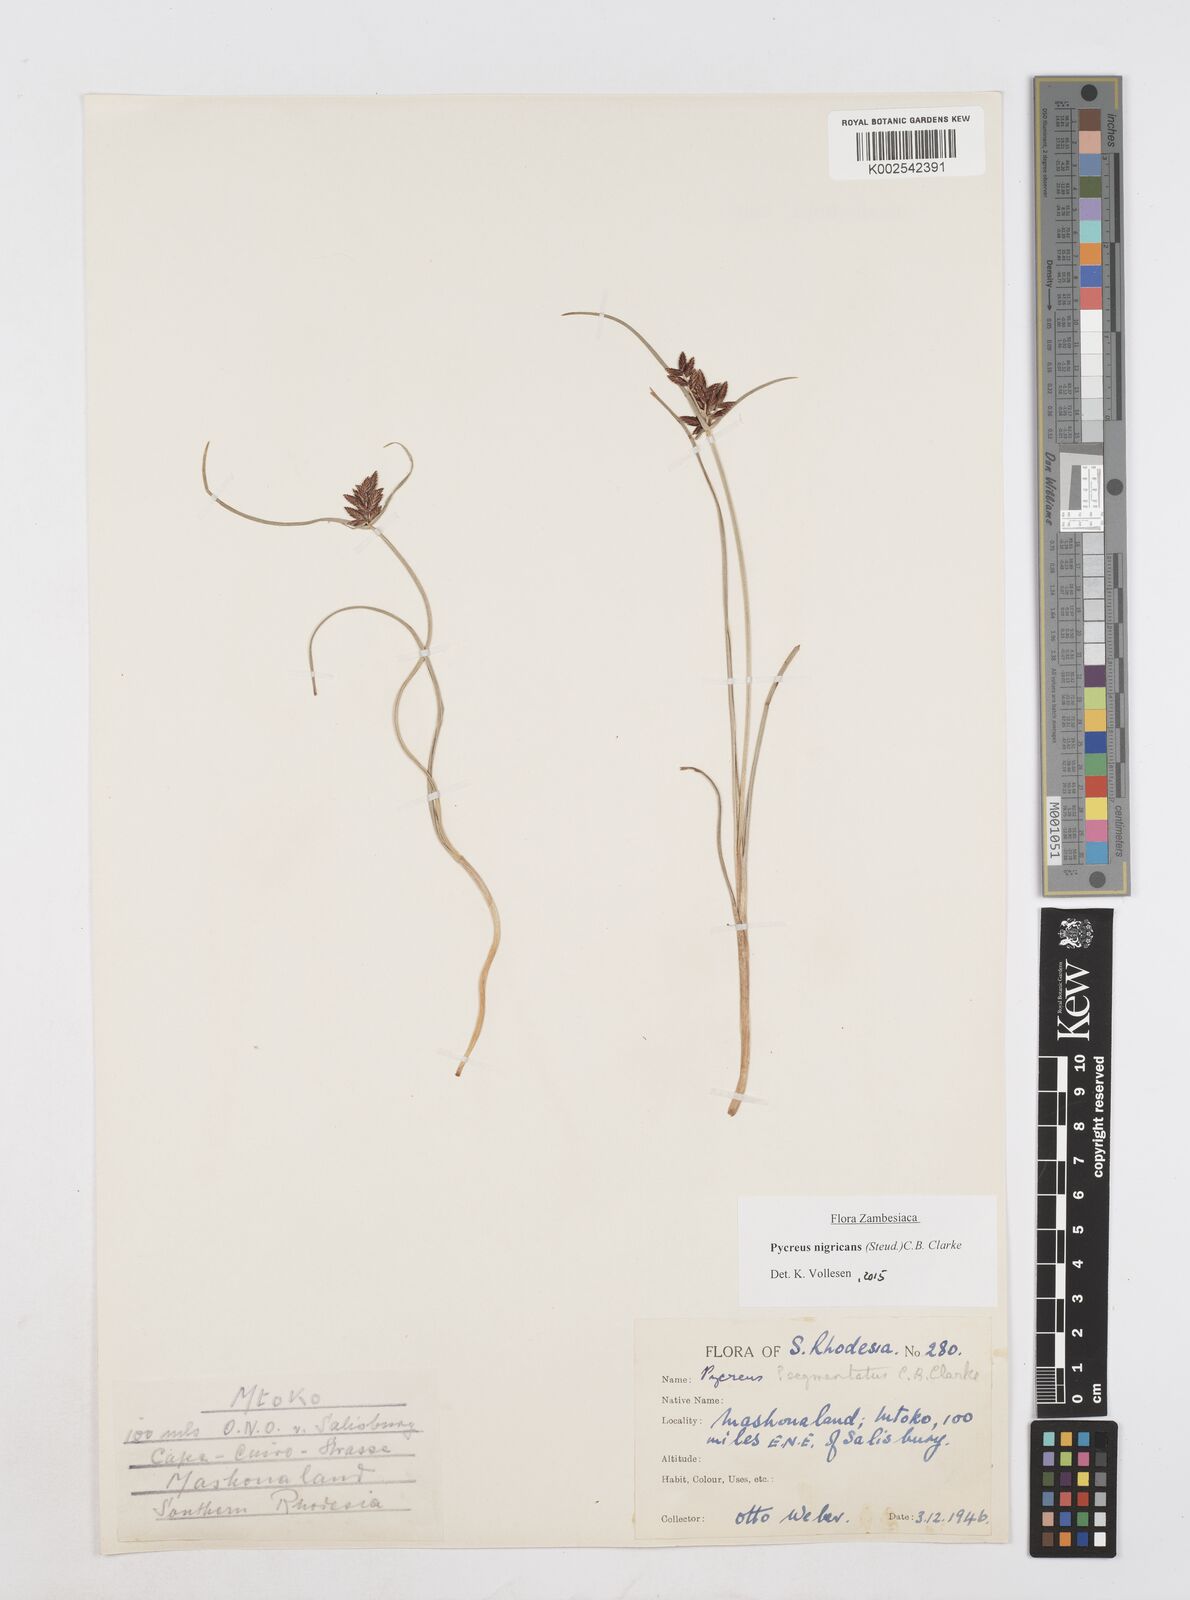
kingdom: Plantae
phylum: Tracheophyta
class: Liliopsida
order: Poales
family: Cyperaceae
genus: Cyperus
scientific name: Cyperus nigricans
